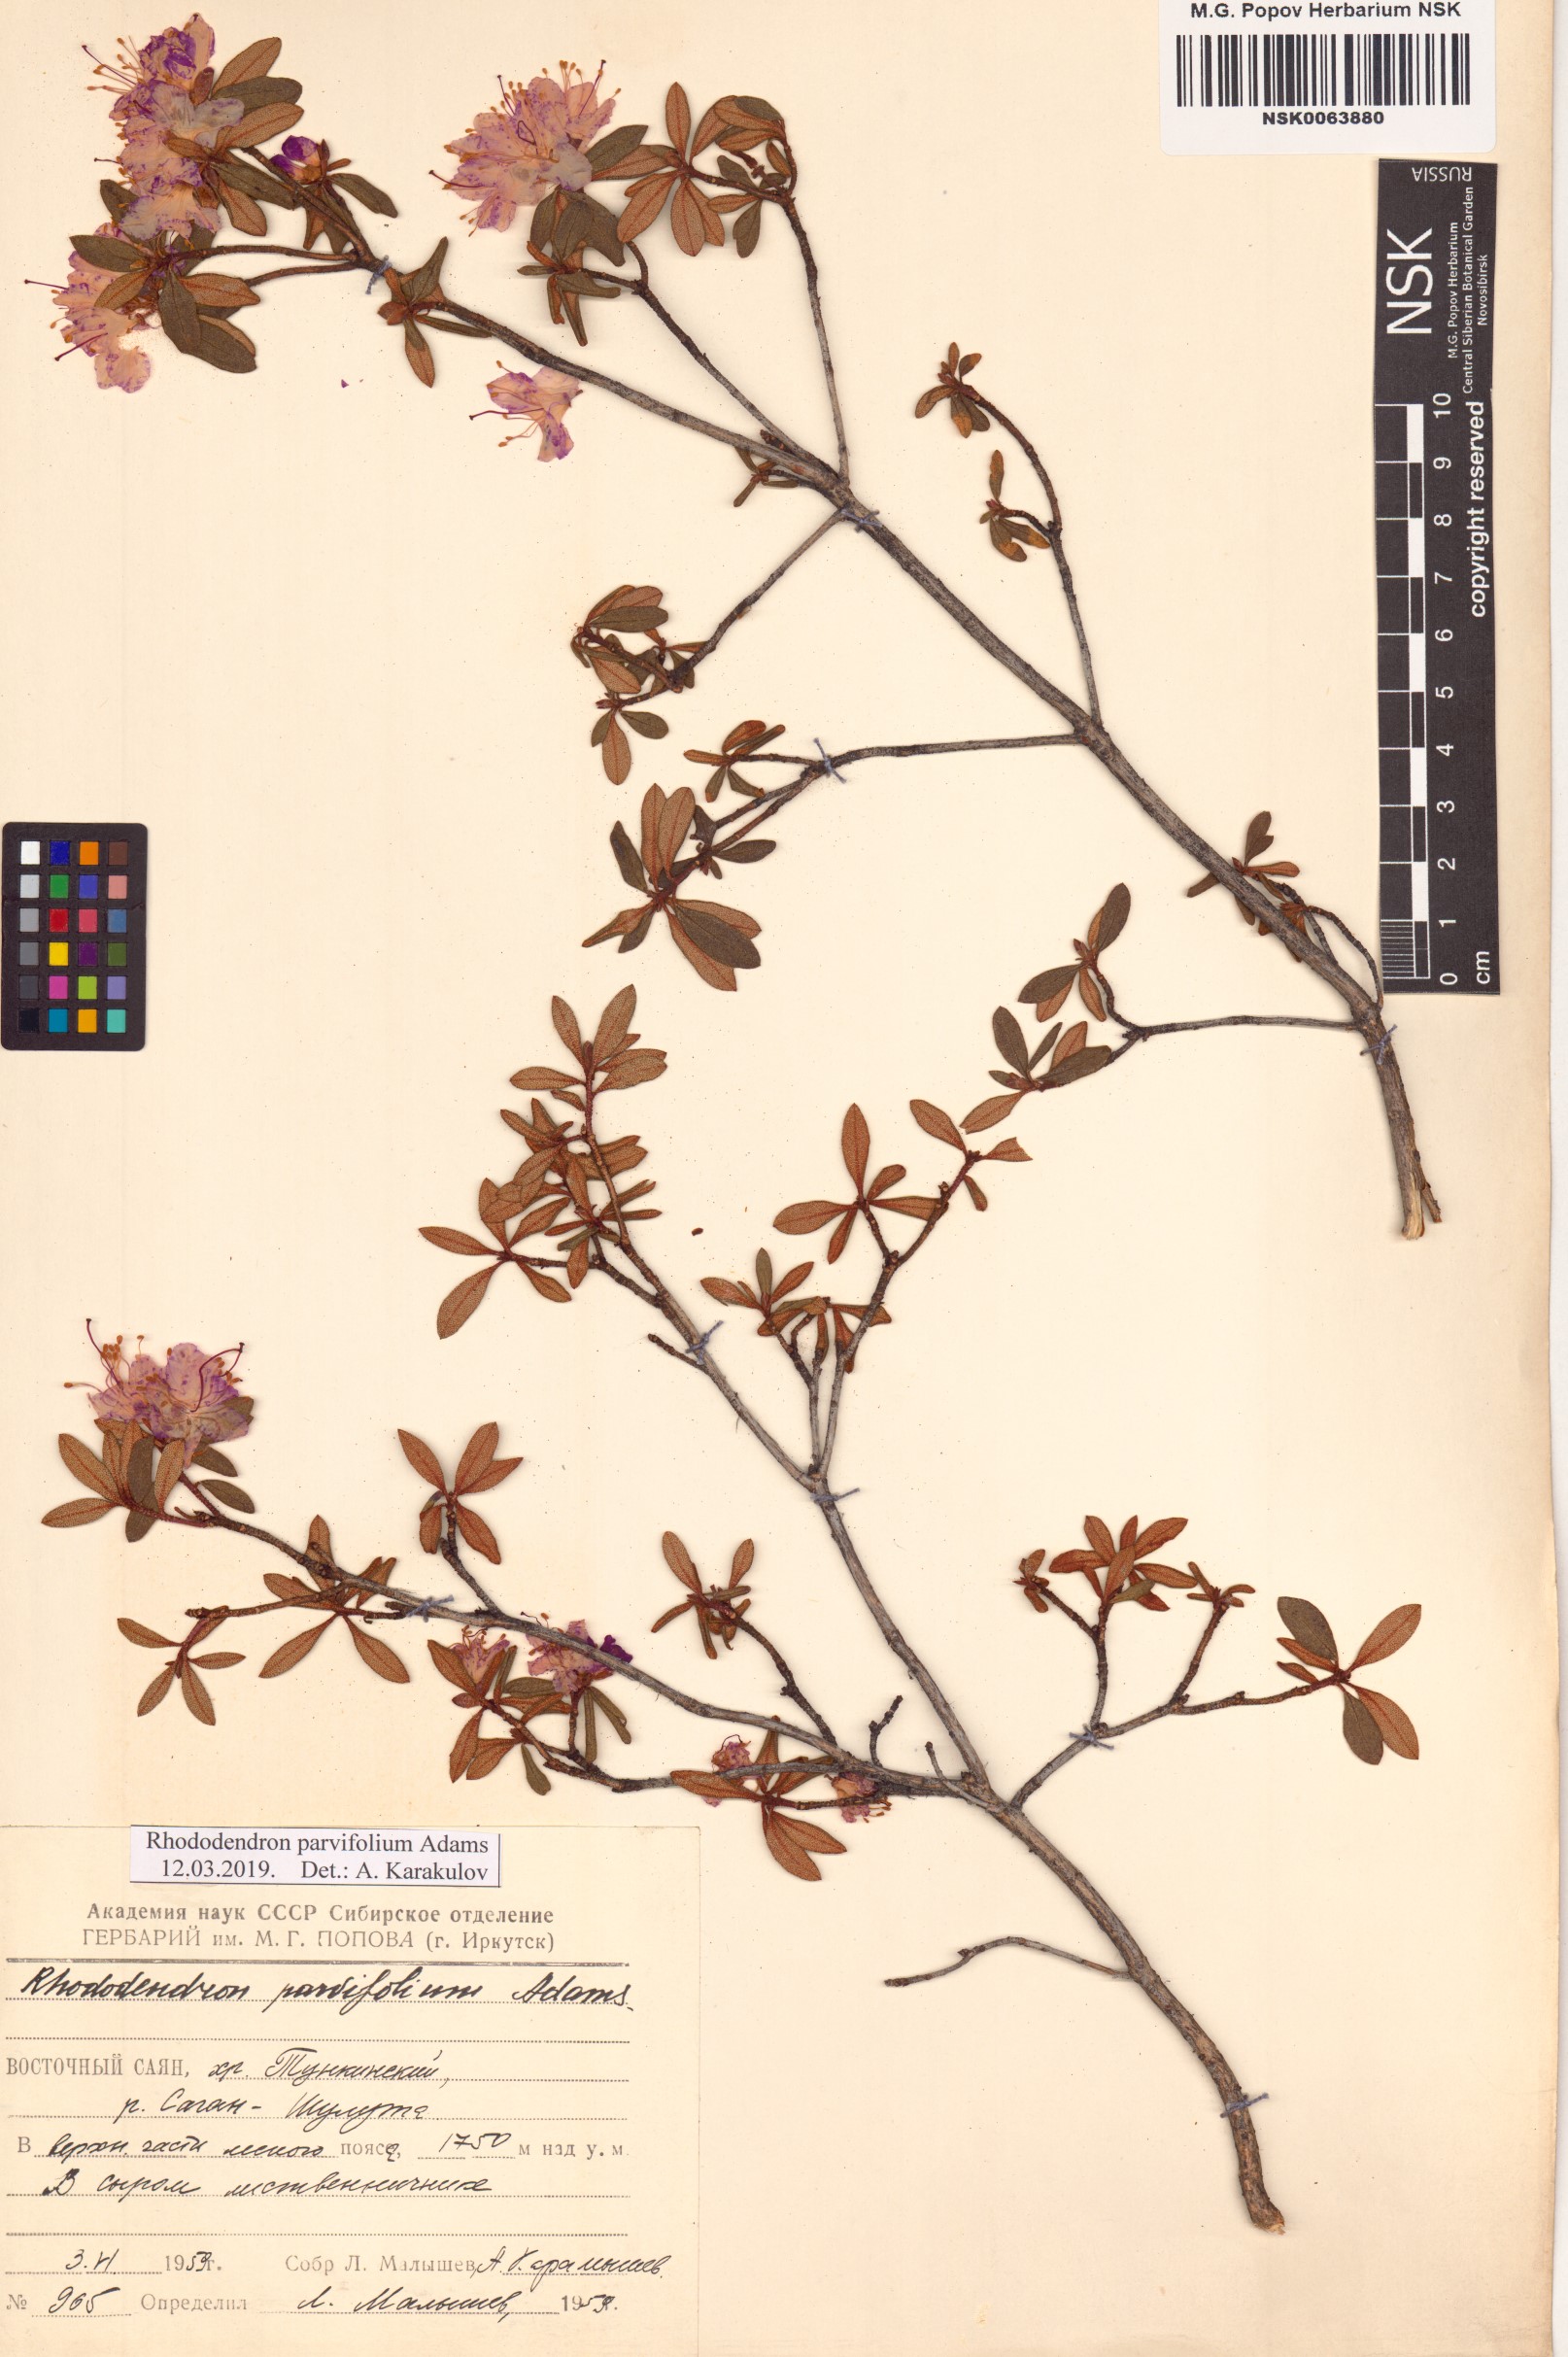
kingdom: Plantae
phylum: Tracheophyta
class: Magnoliopsida
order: Ericales
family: Ericaceae
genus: Rhododendron
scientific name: Rhododendron parvifolium
